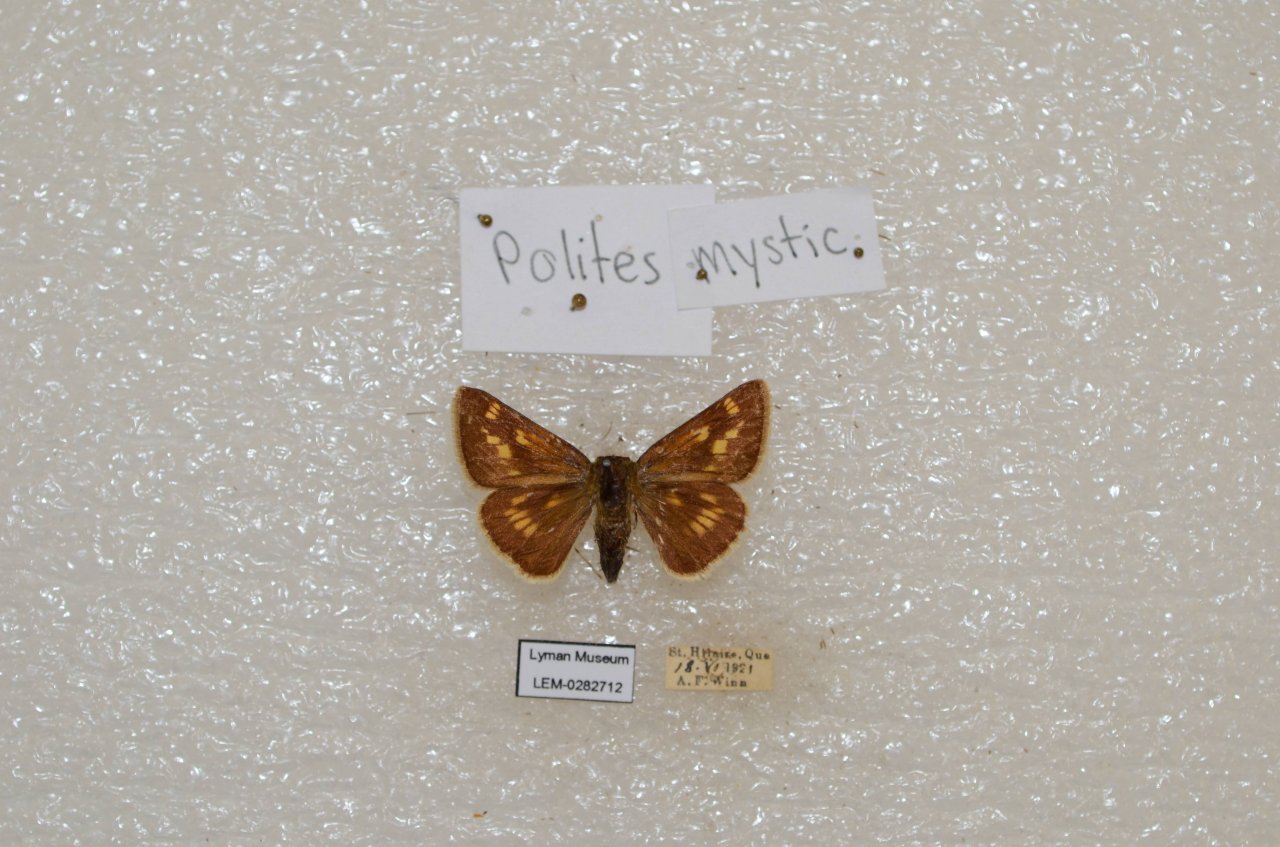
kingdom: Animalia
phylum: Arthropoda
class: Insecta
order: Lepidoptera
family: Hesperiidae
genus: Polites
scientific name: Polites
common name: Long Dash Skipper
